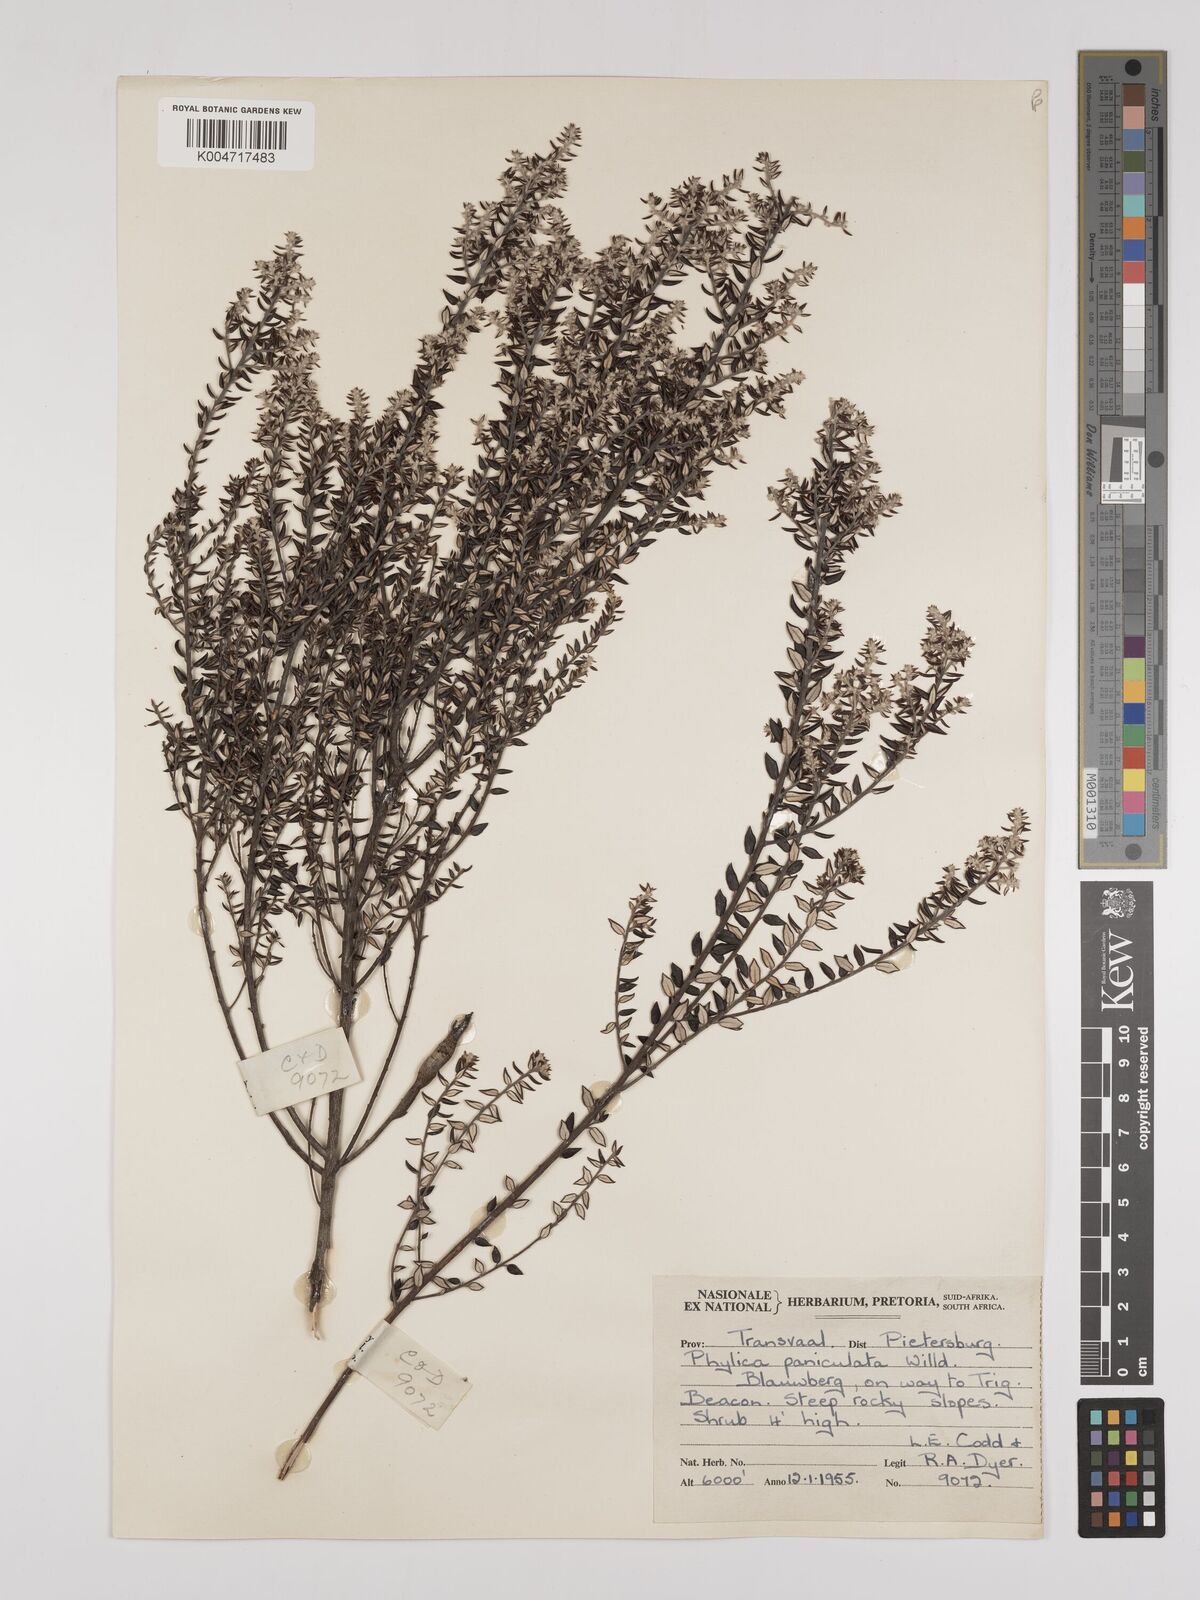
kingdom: Plantae
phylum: Tracheophyta
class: Magnoliopsida
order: Rosales
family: Rhamnaceae
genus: Phylica
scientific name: Phylica paniculata
